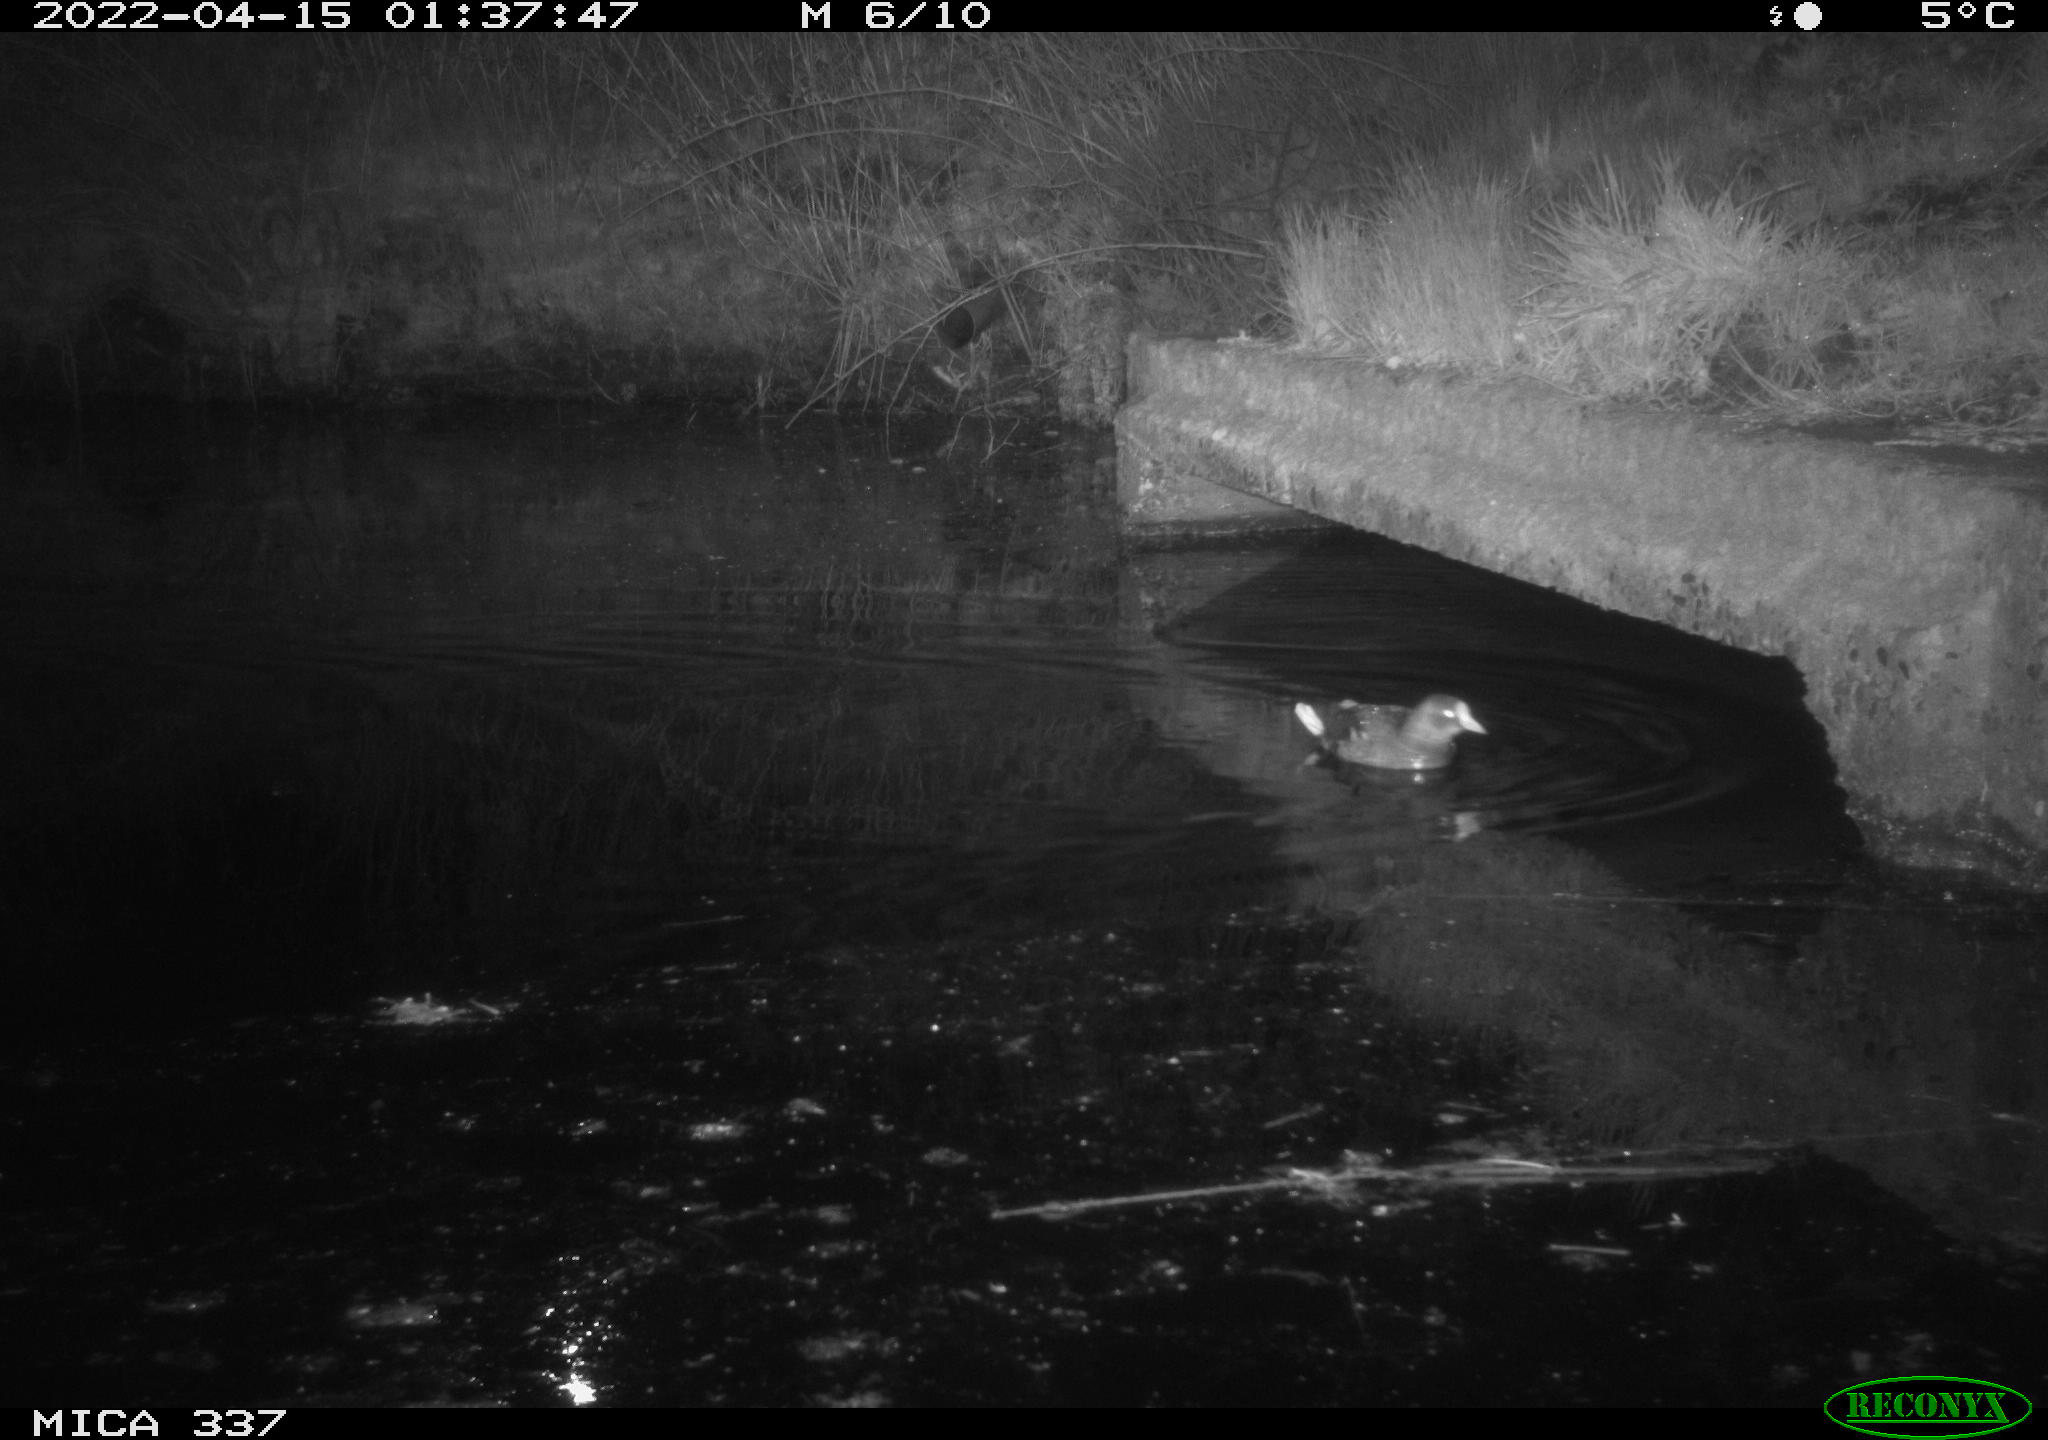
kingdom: Animalia
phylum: Chordata
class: Aves
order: Gruiformes
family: Rallidae
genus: Gallinula
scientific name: Gallinula chloropus
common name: Common moorhen
